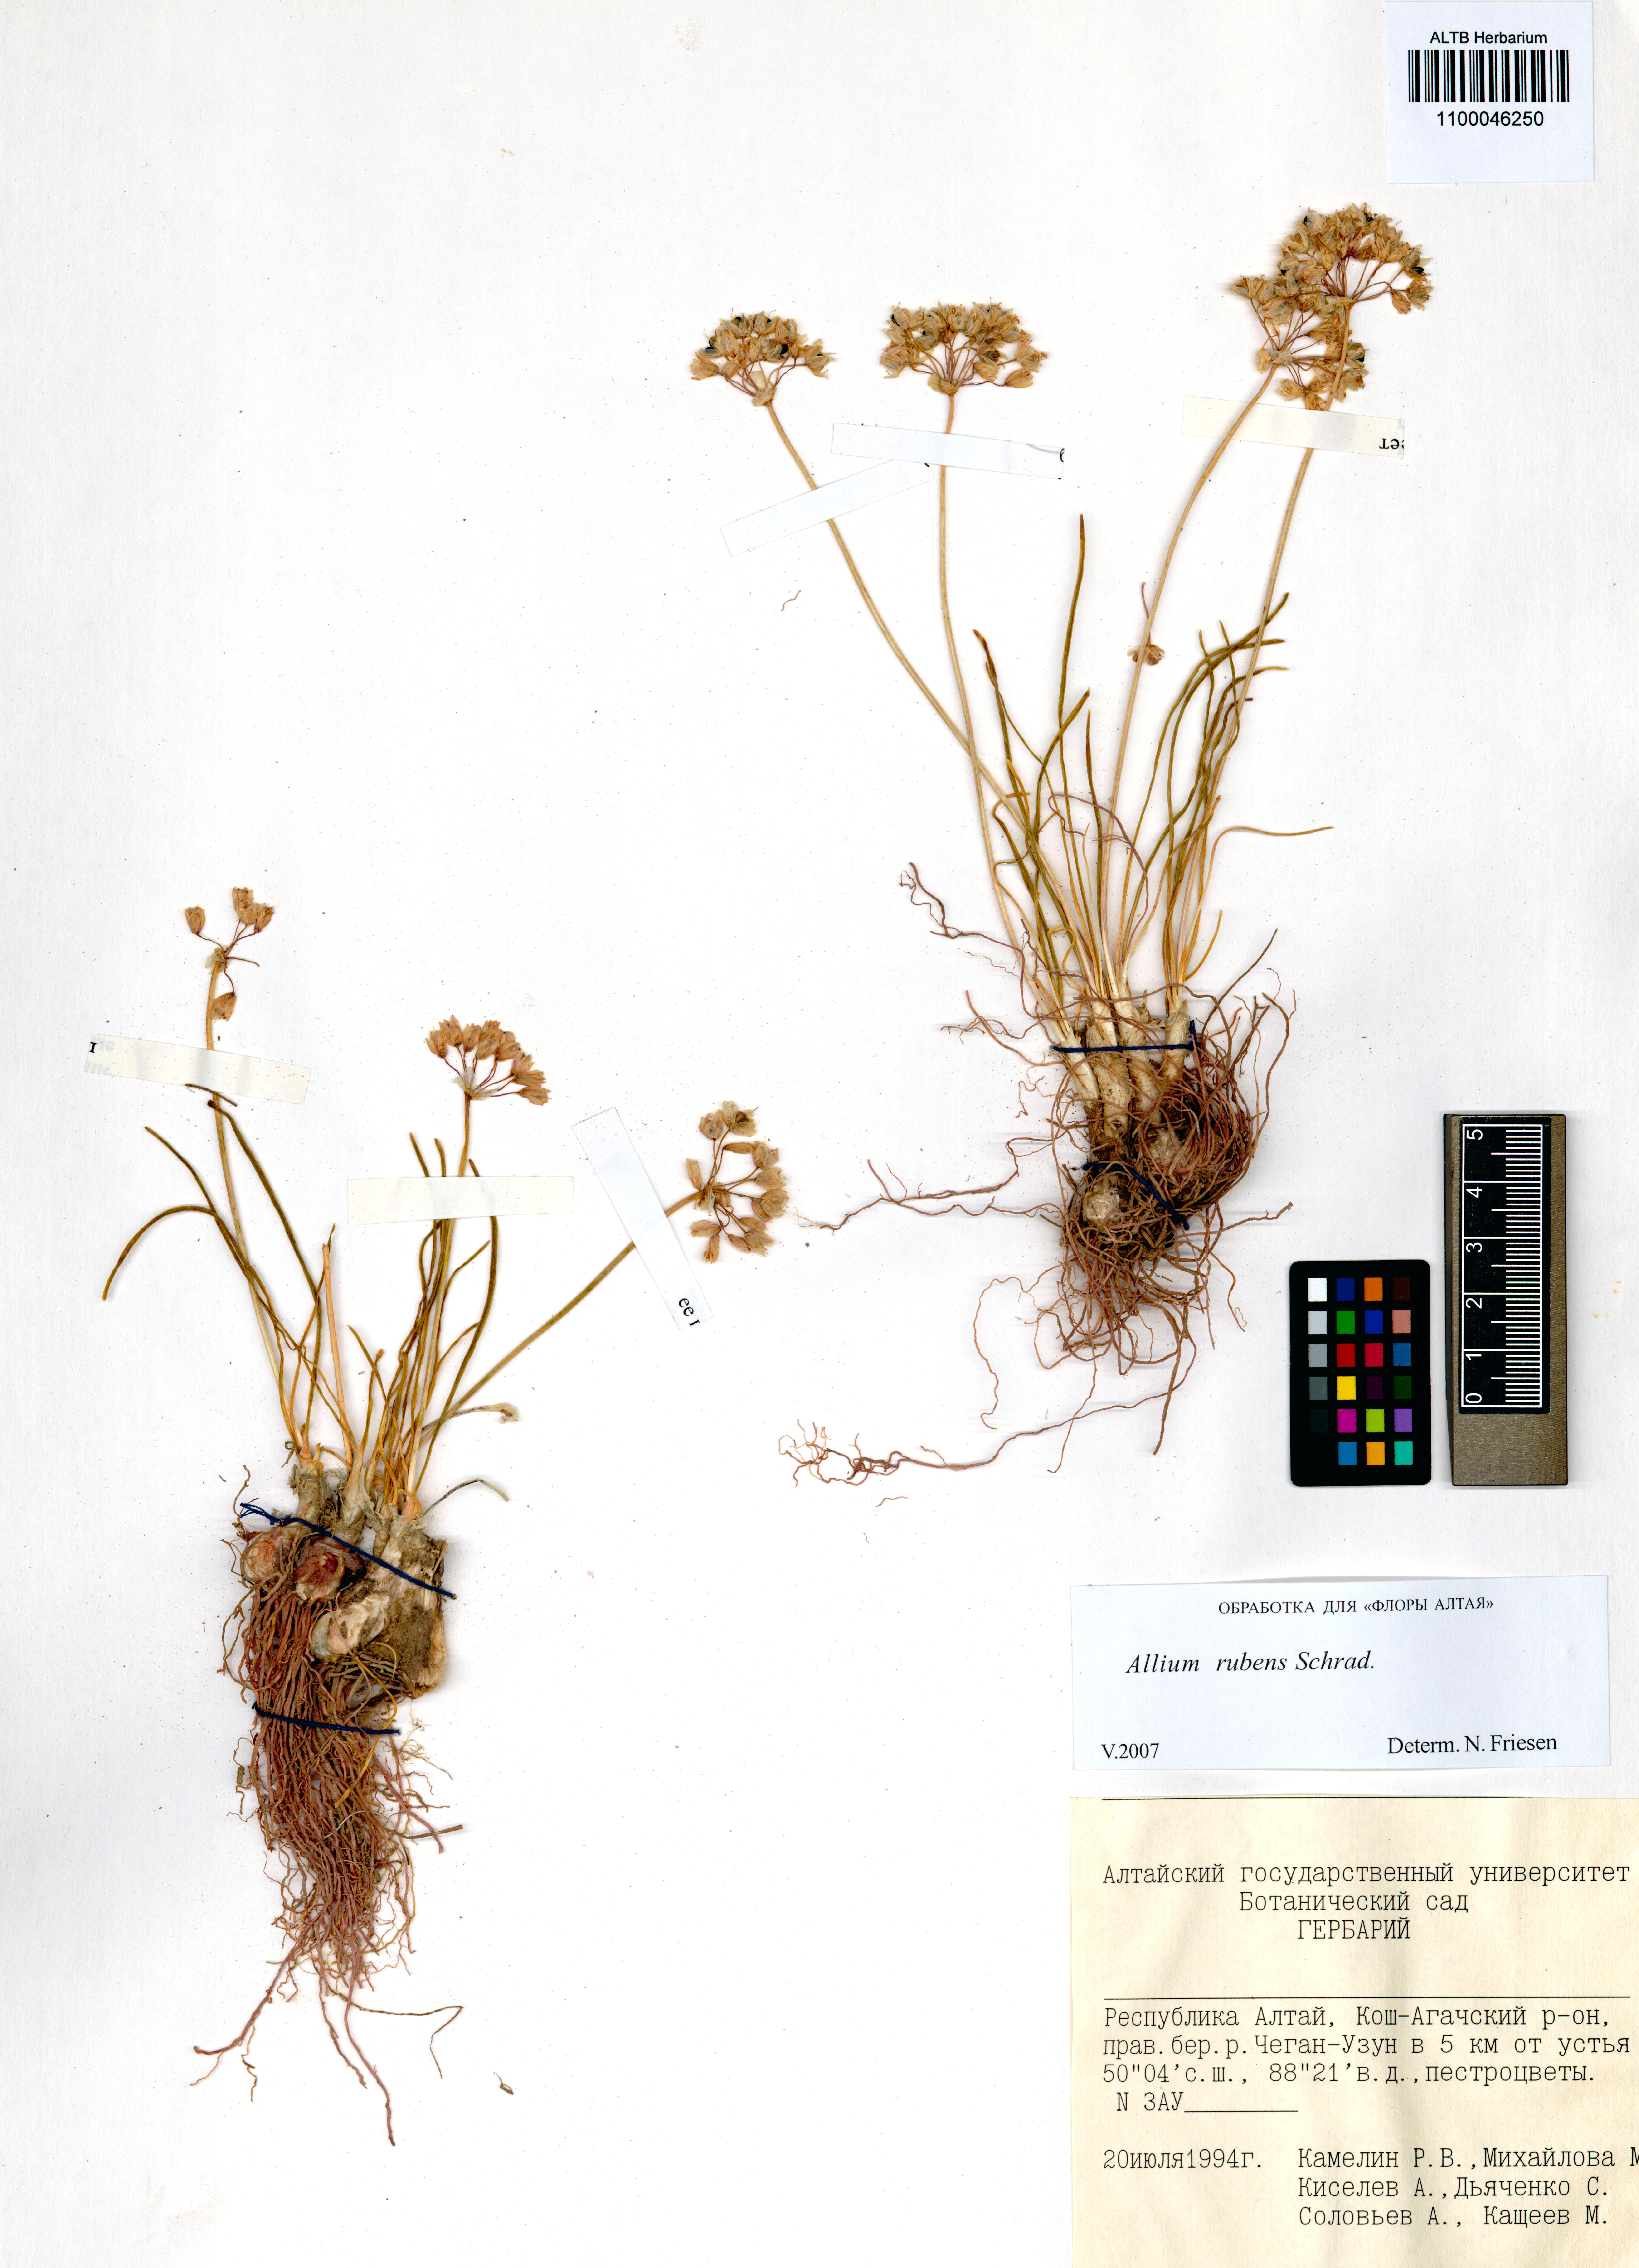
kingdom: Plantae
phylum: Tracheophyta
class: Liliopsida
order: Asparagales
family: Amaryllidaceae
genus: Allium
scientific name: Allium rubens
